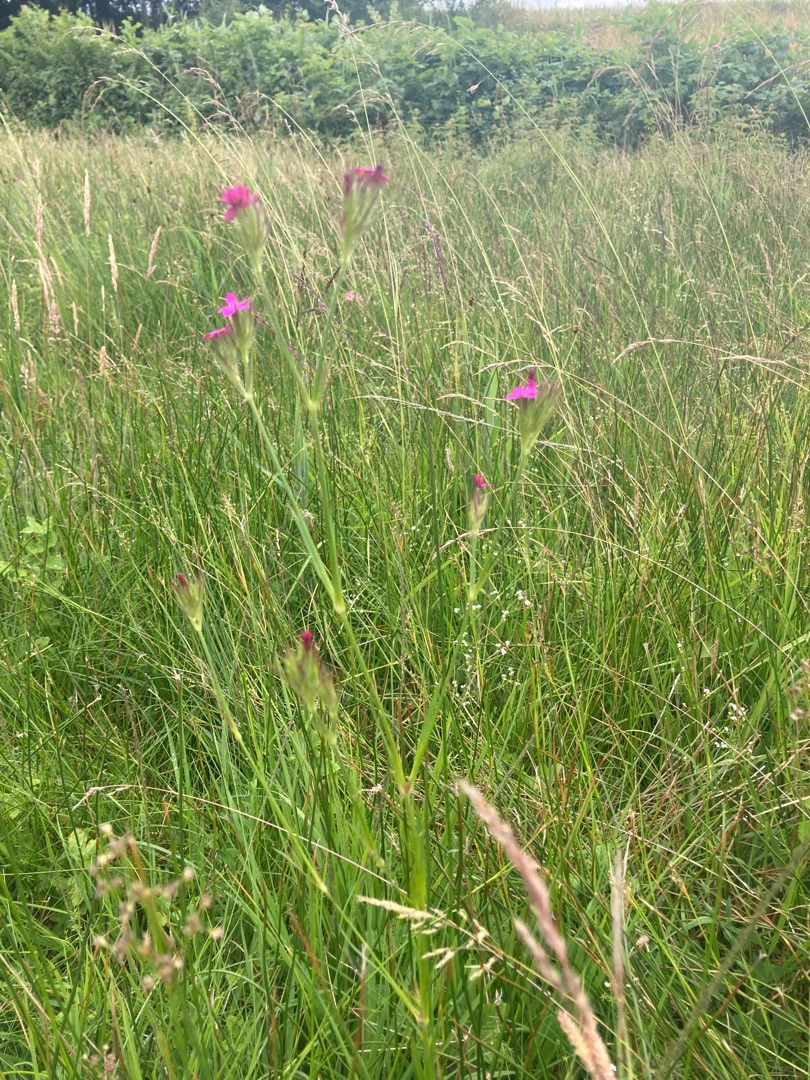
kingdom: Plantae
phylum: Tracheophyta
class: Magnoliopsida
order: Caryophyllales
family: Caryophyllaceae
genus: Dianthus
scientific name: Dianthus armeria
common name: Kost-nellike
